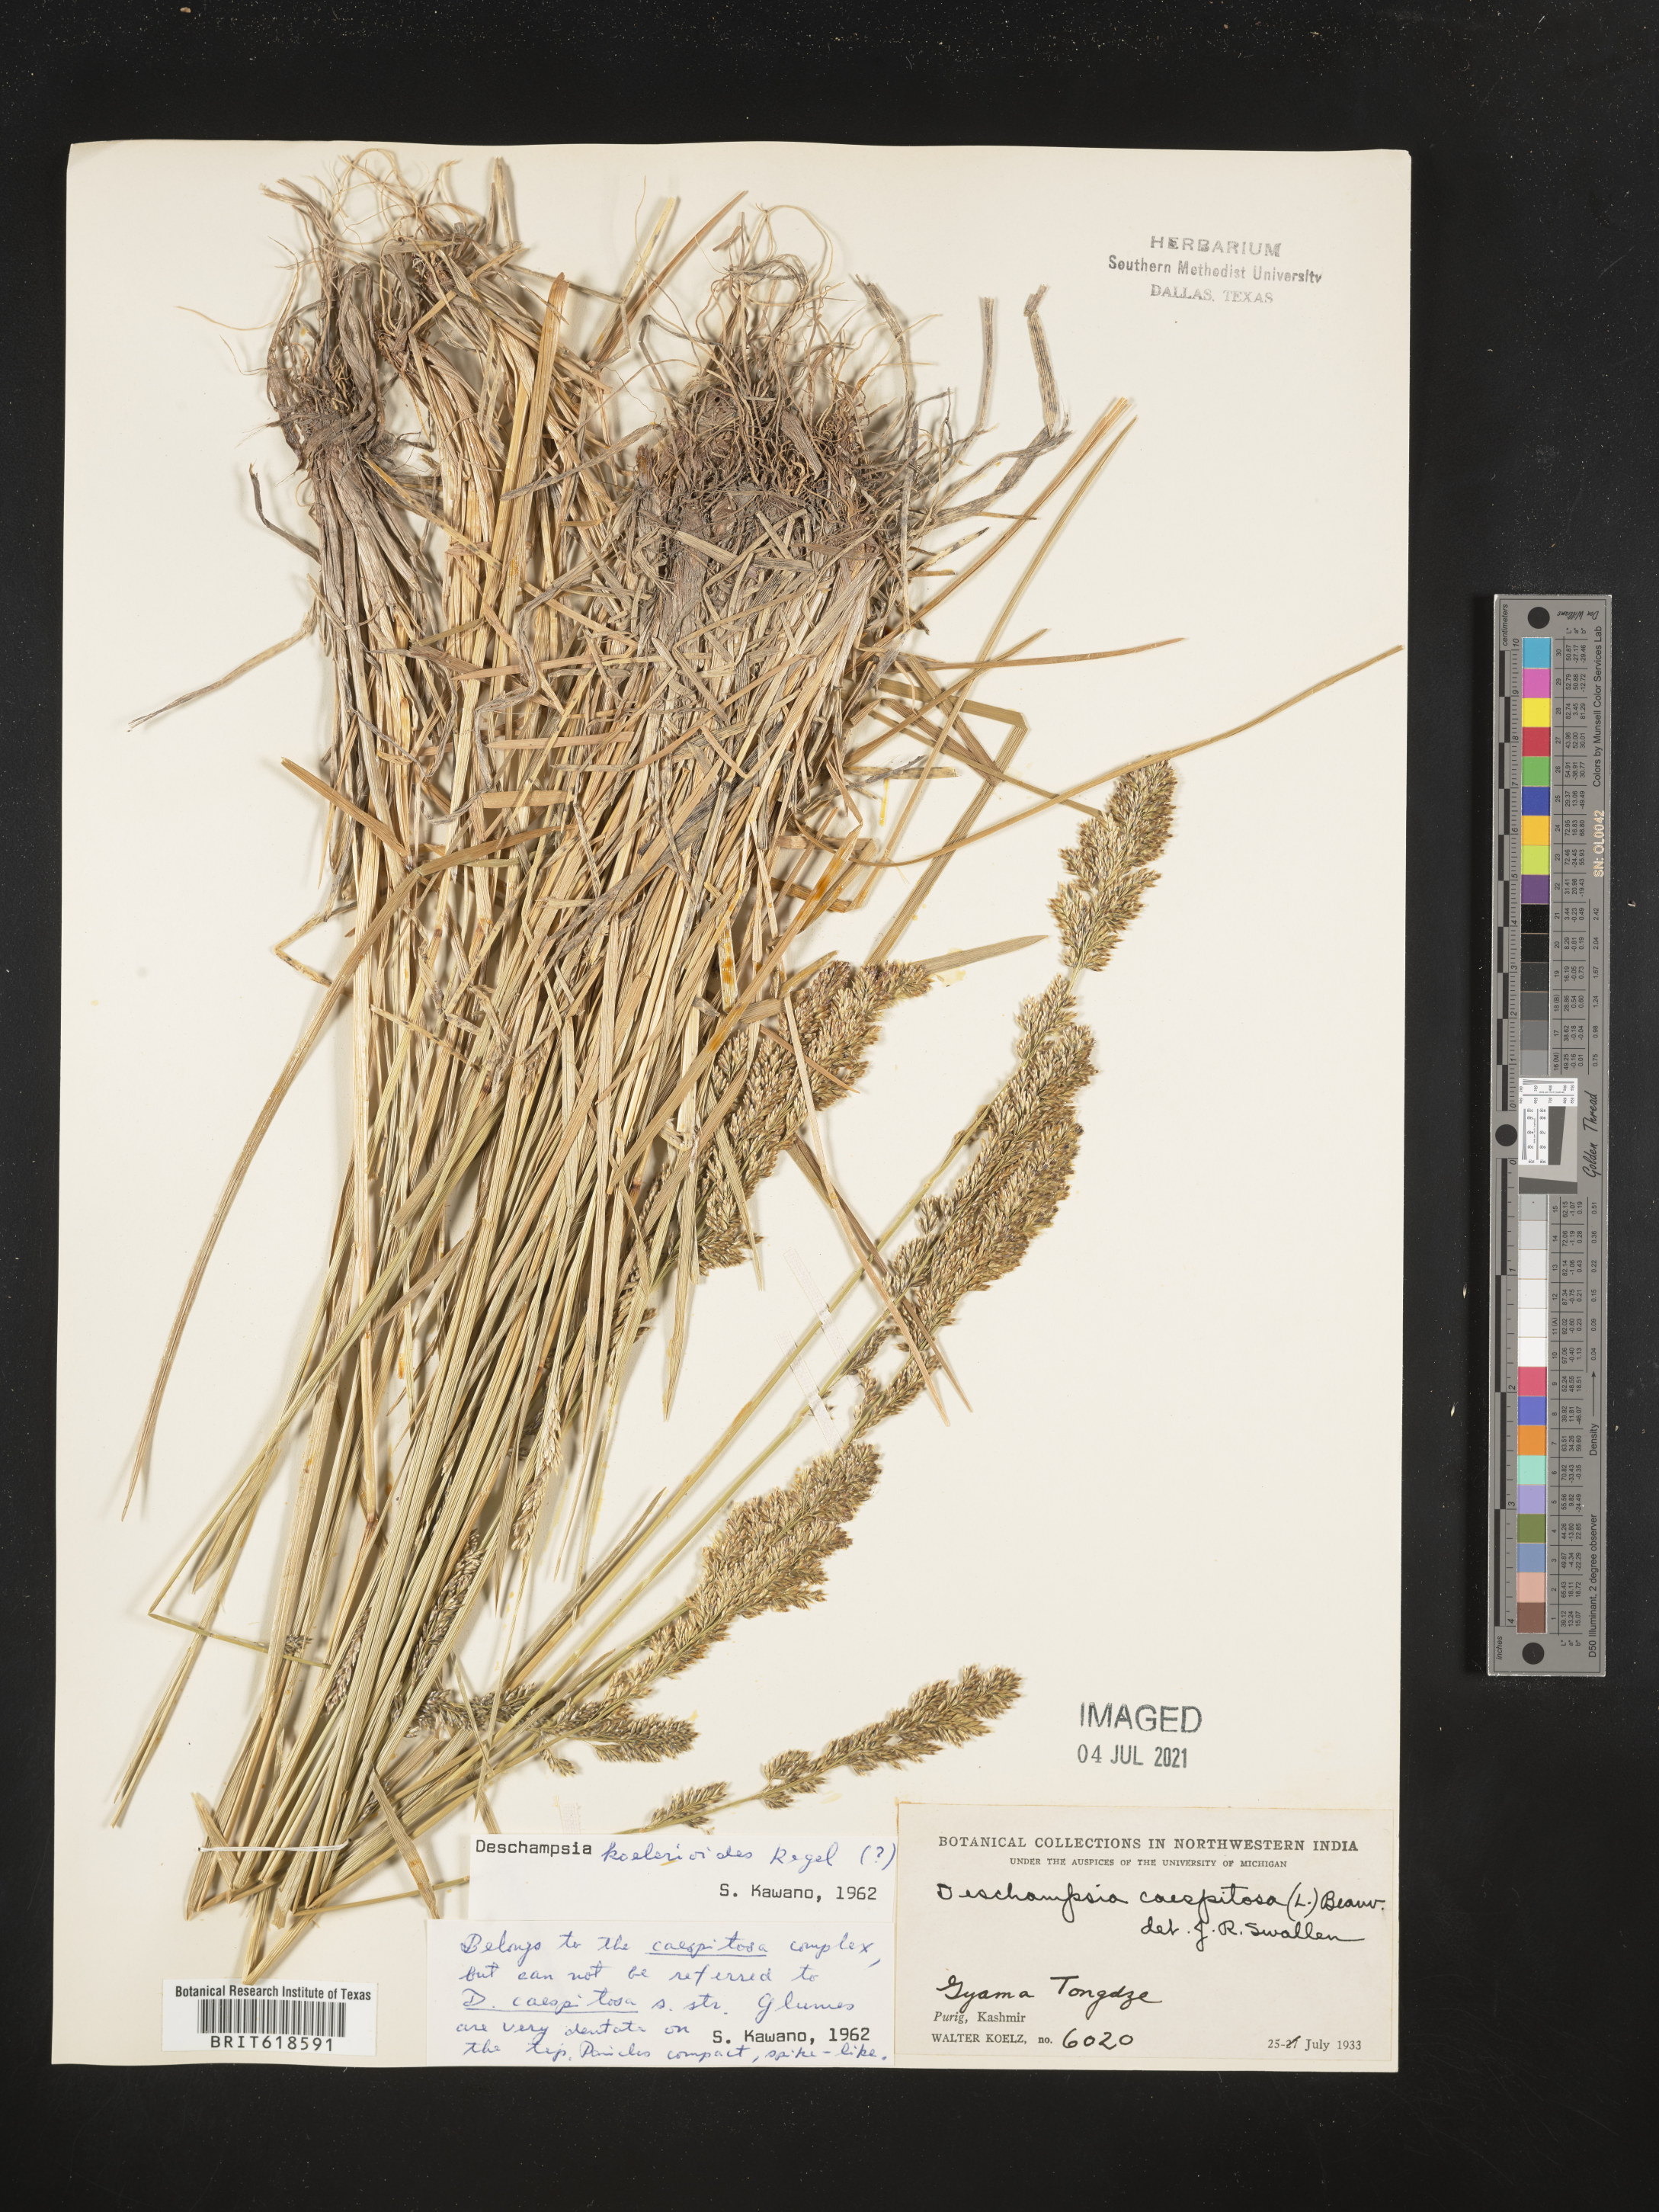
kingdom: Plantae
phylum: Tracheophyta
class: Liliopsida
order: Poales
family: Poaceae
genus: Peyritschia
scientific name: Peyritschia koelerioides
